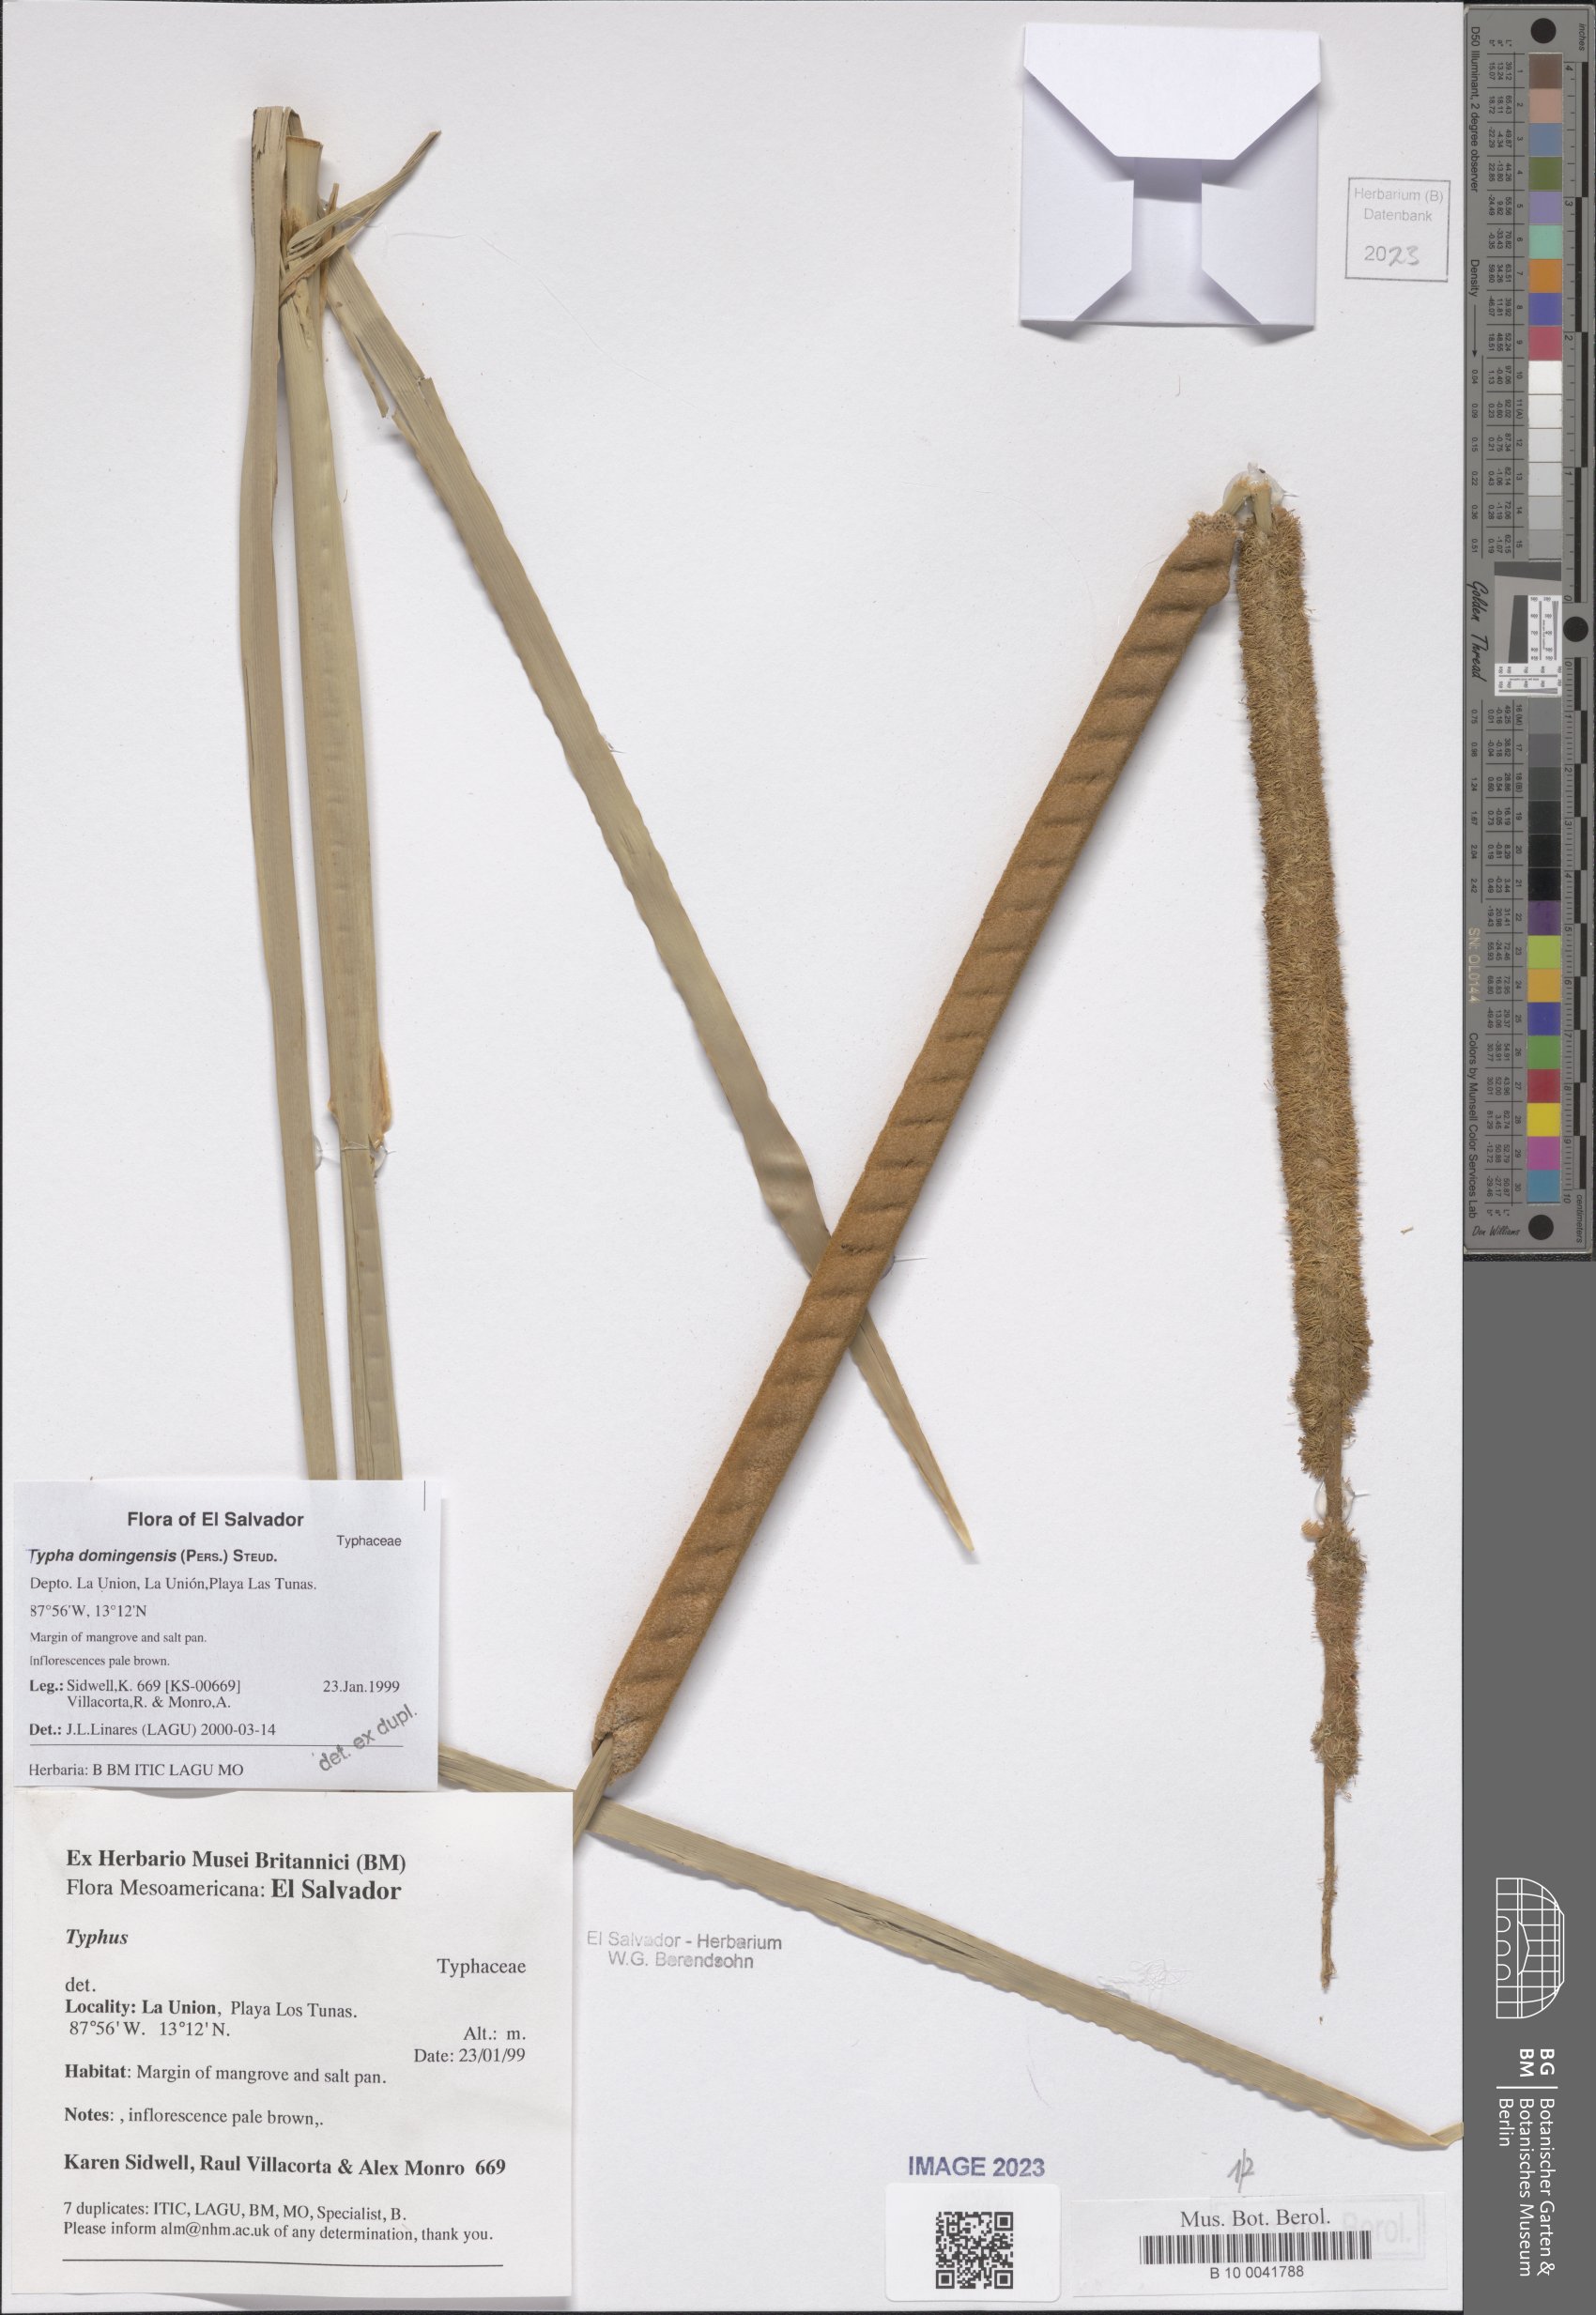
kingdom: Plantae
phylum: Tracheophyta
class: Liliopsida
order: Poales
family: Typhaceae
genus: Typha
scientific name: Typha domingensis
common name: Southern cattail
